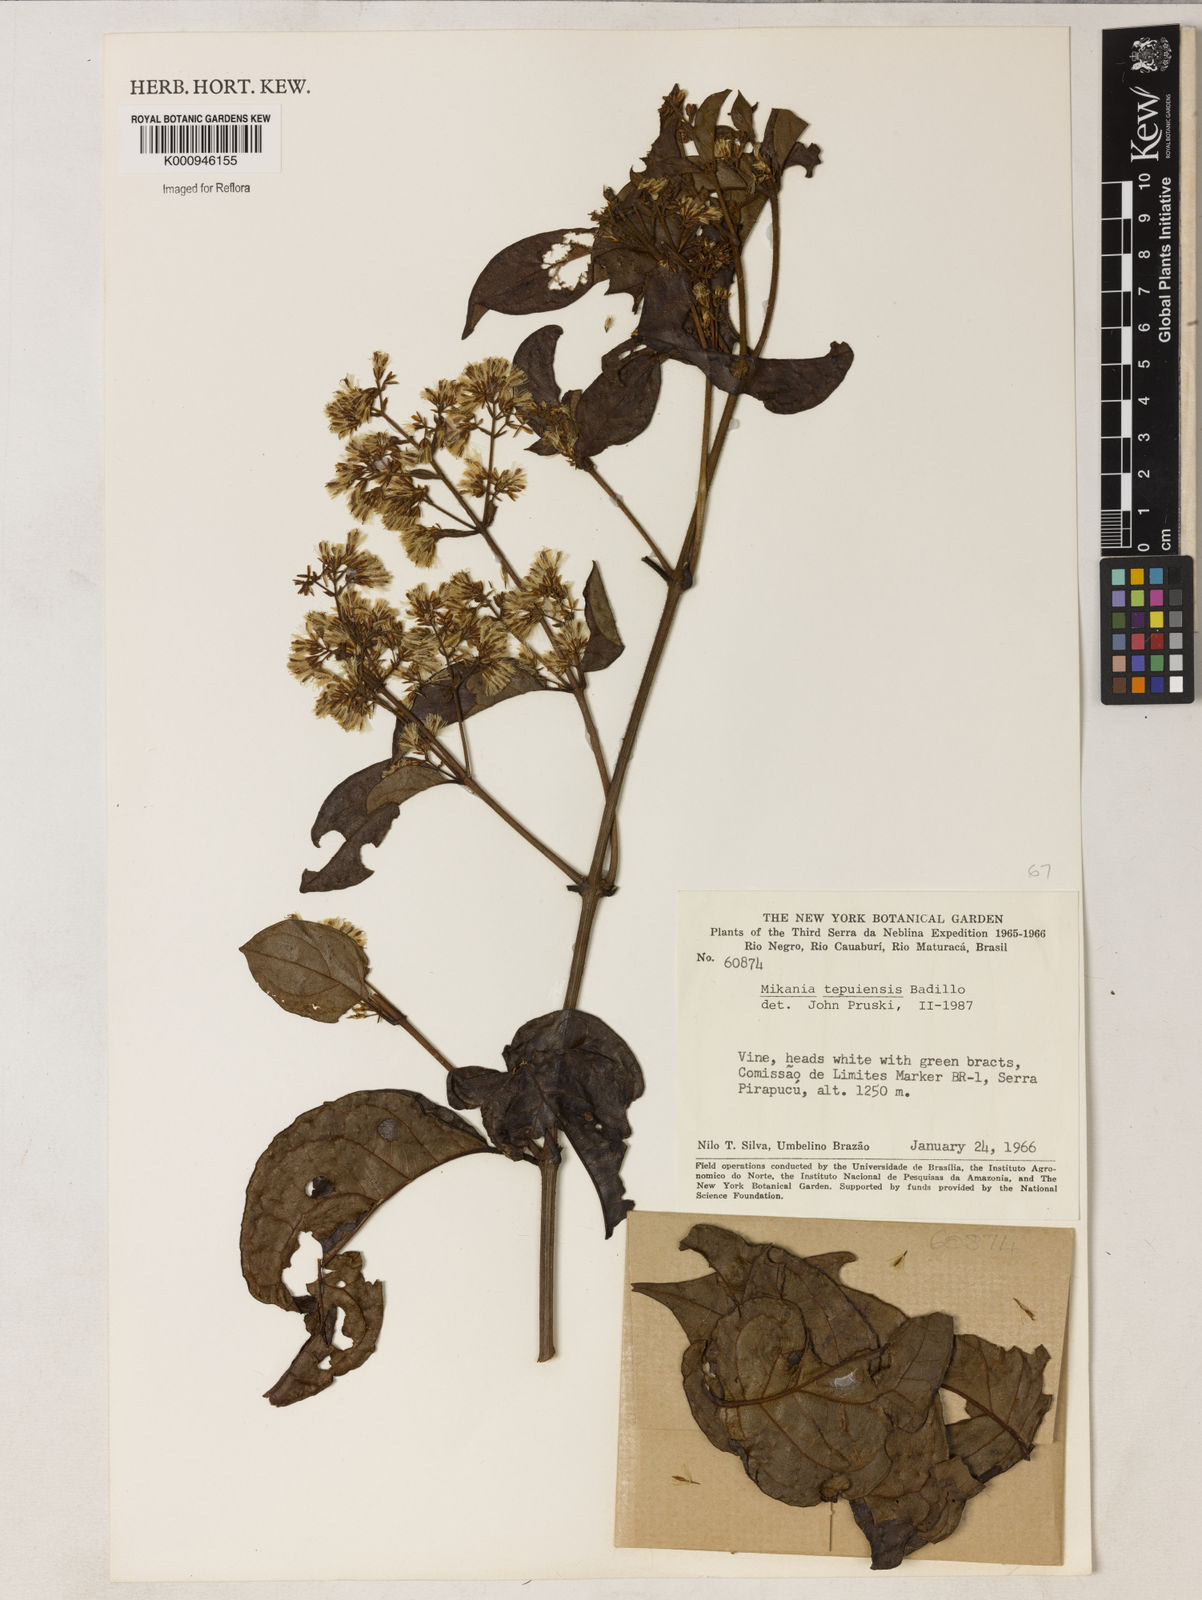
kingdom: Plantae
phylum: Tracheophyta
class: Magnoliopsida
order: Asterales
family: Asteraceae
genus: Mikania
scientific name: Mikania nemorosa
